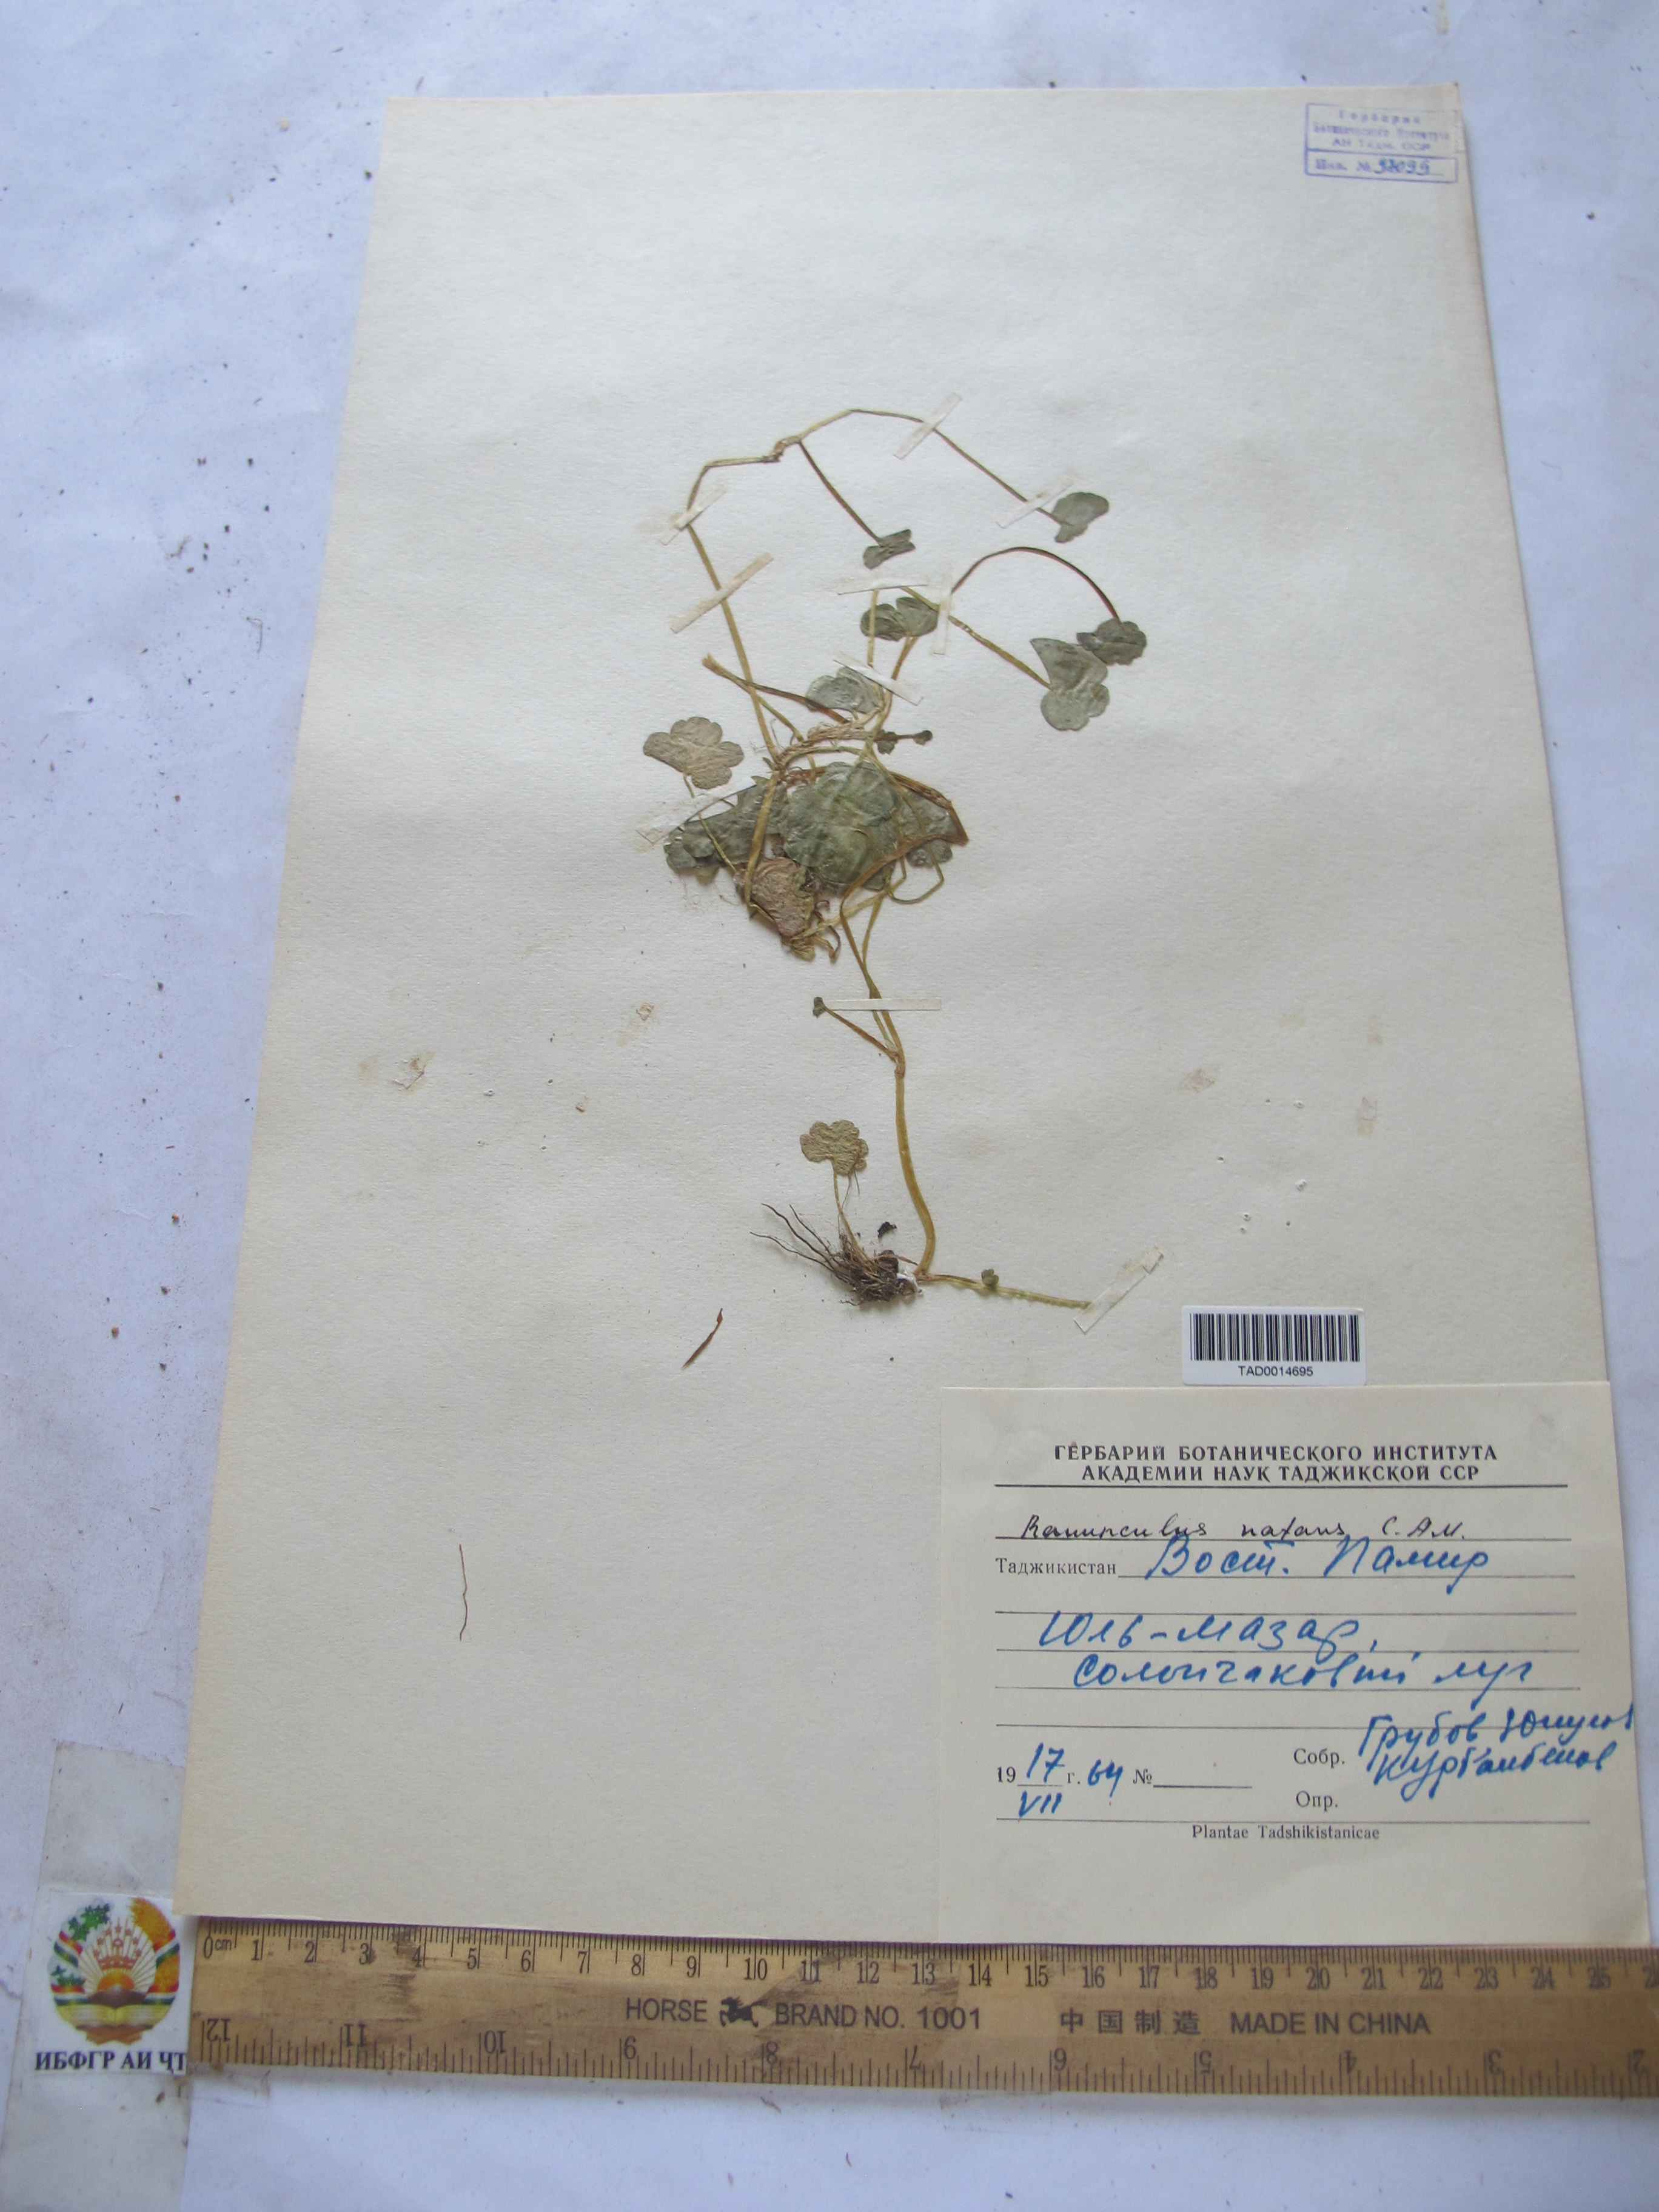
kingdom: Plantae
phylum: Tracheophyta
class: Magnoliopsida
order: Ranunculales
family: Ranunculaceae
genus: Ranunculus
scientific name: Ranunculus natans
